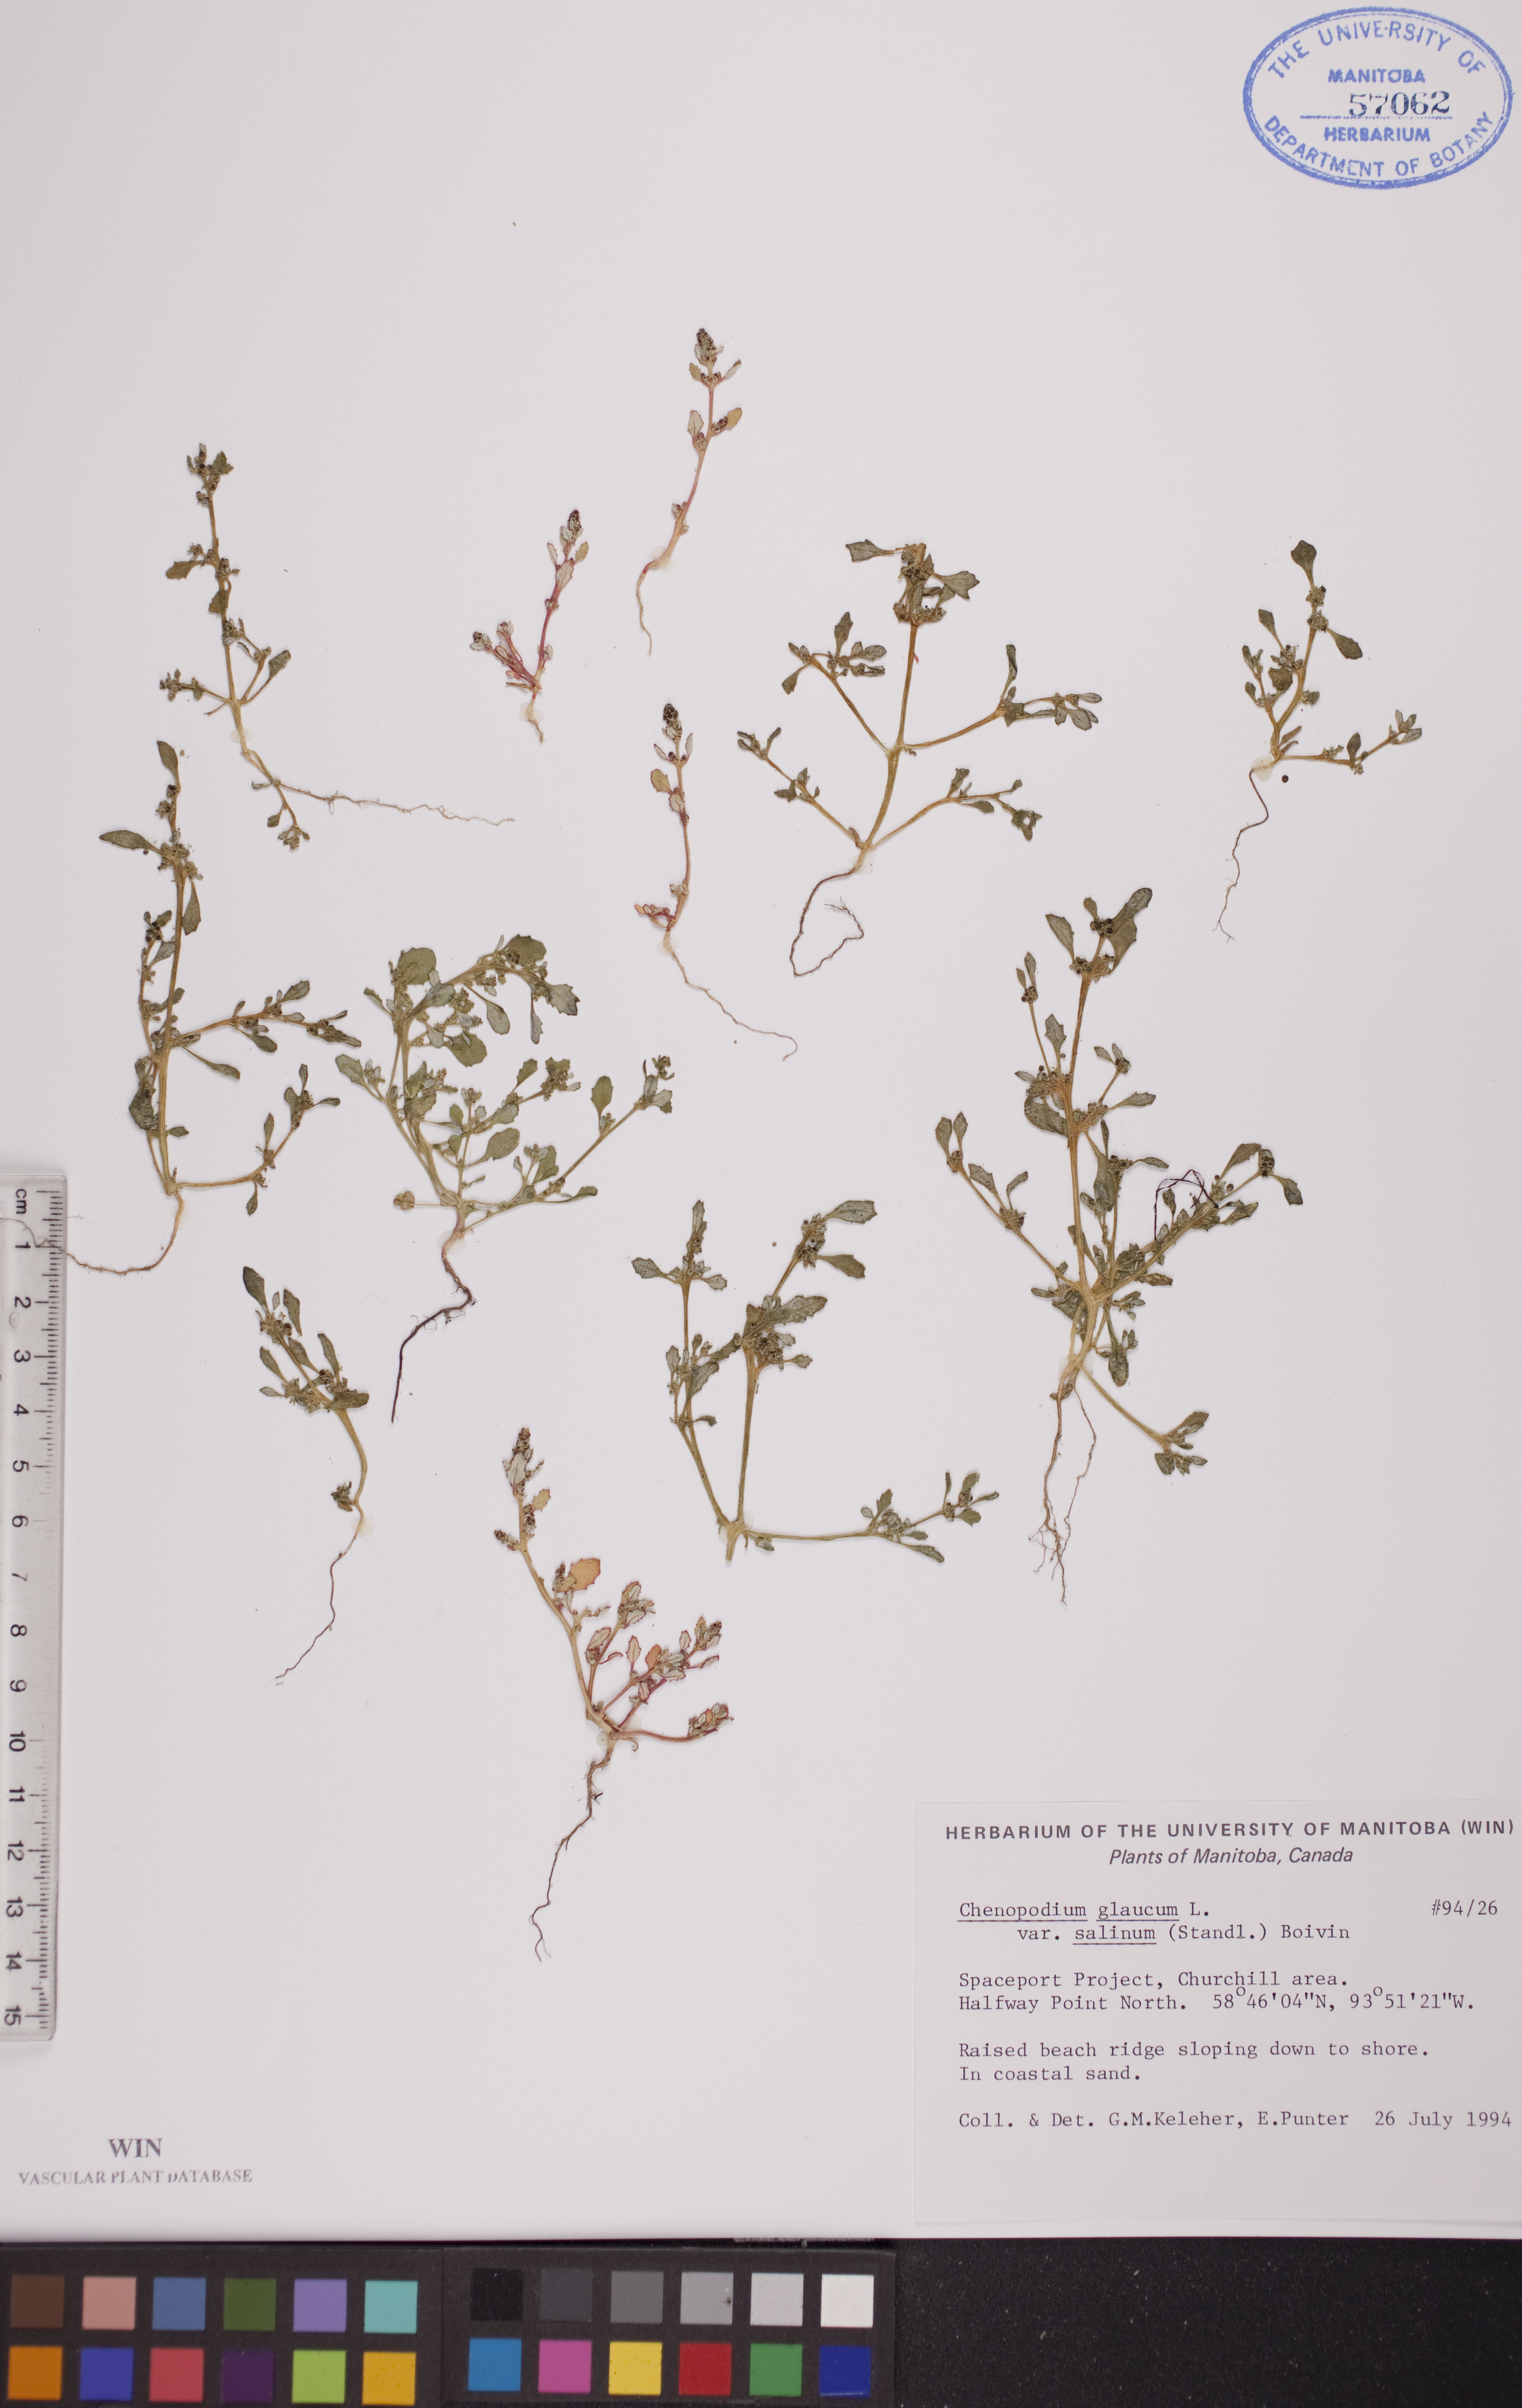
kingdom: Plantae
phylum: Tracheophyta
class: Magnoliopsida
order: Caryophyllales
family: Amaranthaceae
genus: Oxybasis
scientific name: Oxybasis salina
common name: Rocky mountain goosefoot
